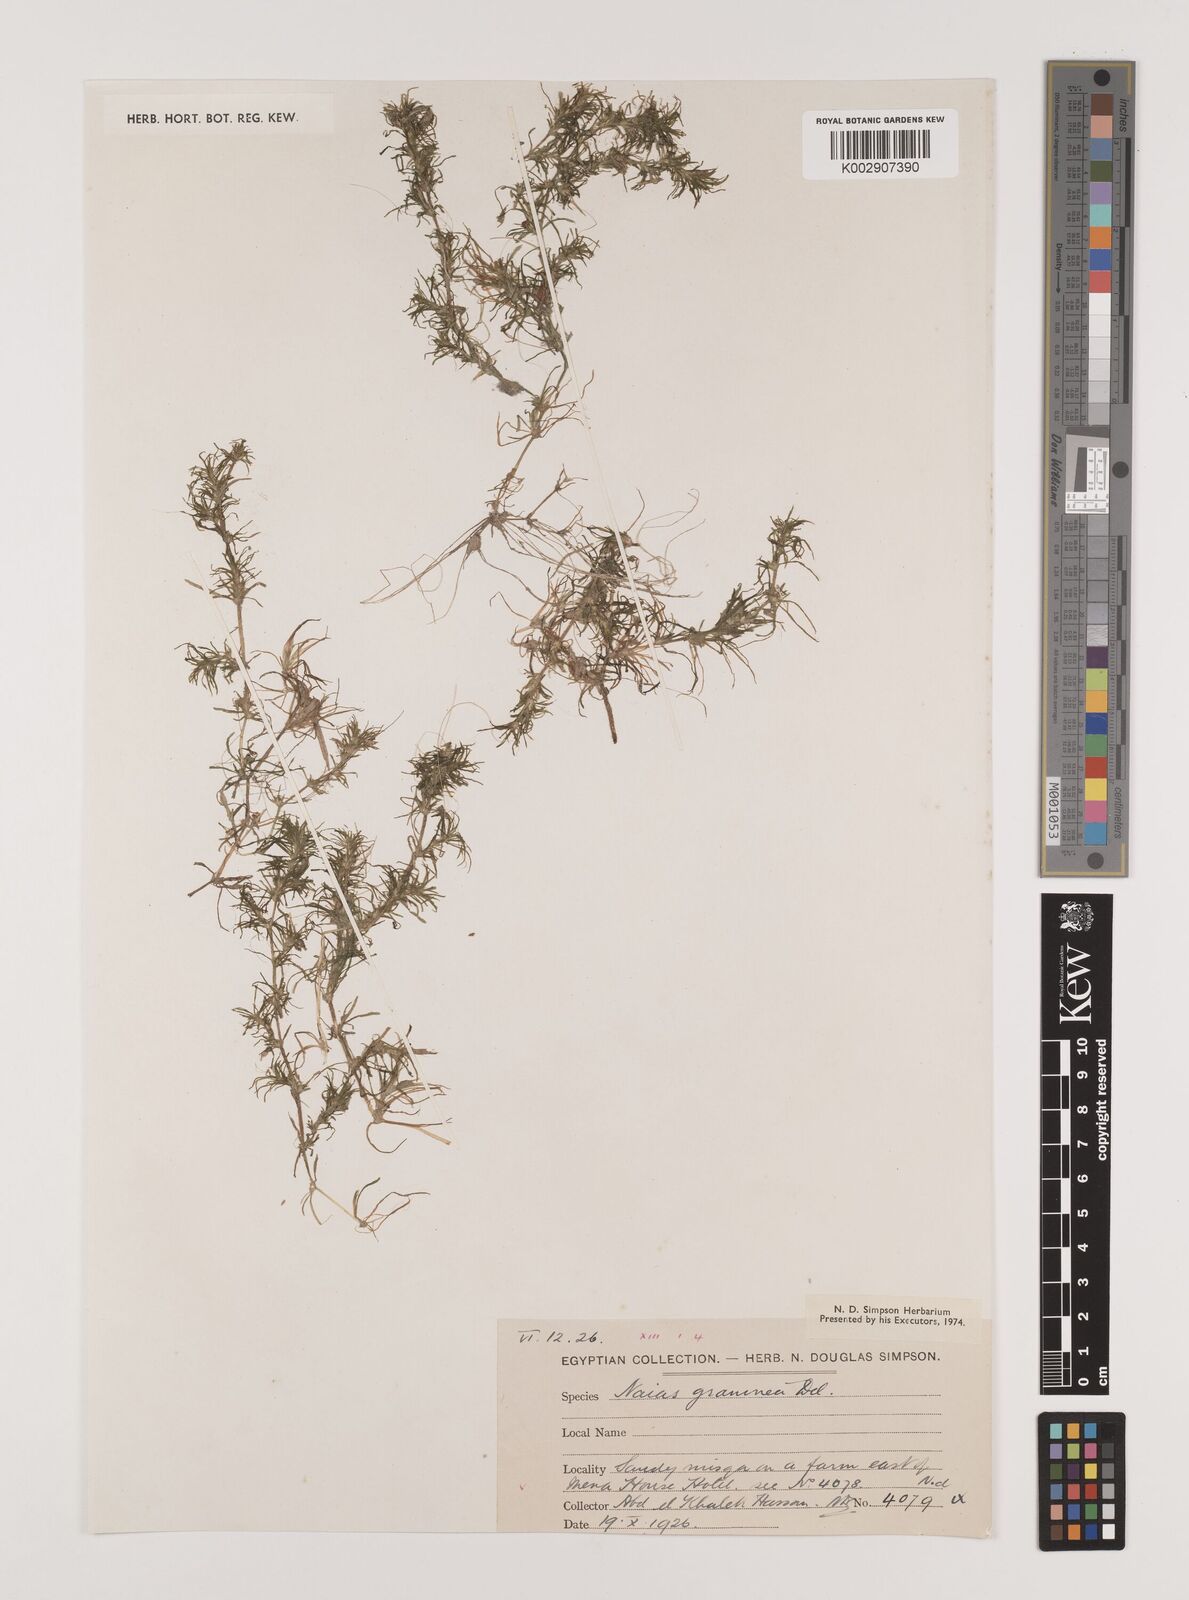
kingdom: Plantae
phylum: Tracheophyta
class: Liliopsida
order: Alismatales
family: Hydrocharitaceae
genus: Najas
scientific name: Najas graminea
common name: Ricefield waternymph
